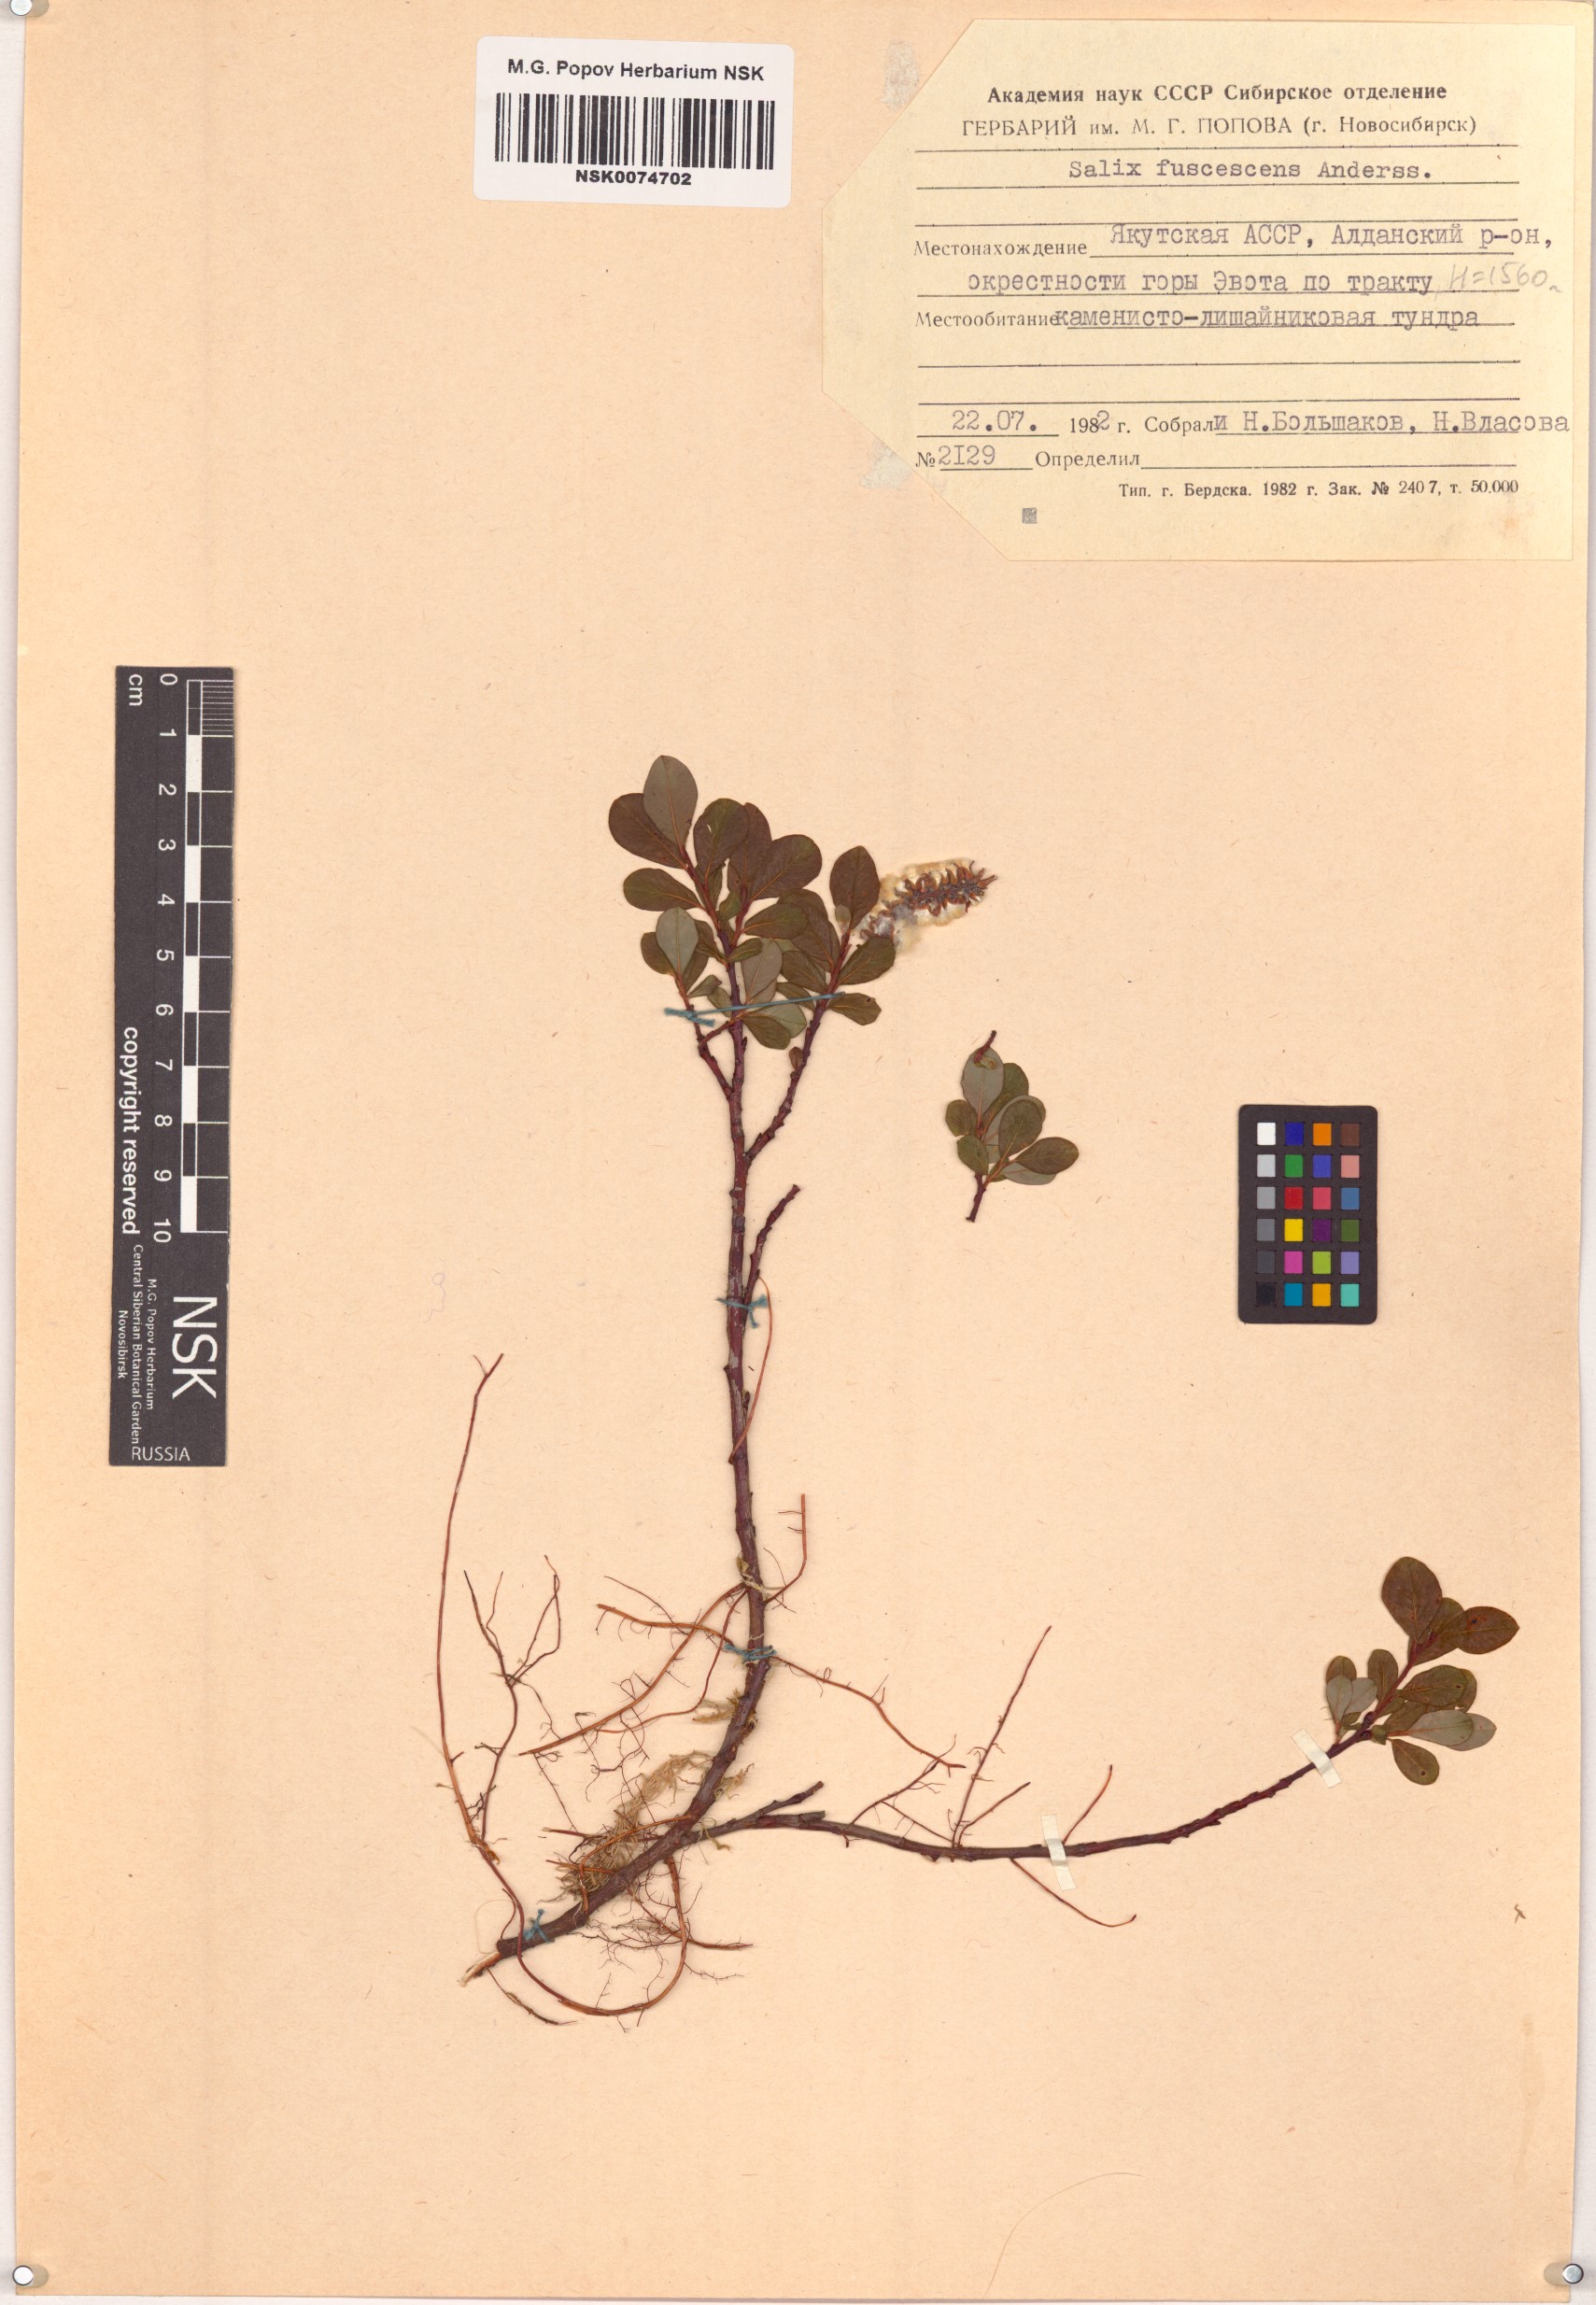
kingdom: Plantae
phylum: Tracheophyta
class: Magnoliopsida
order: Malpighiales
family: Salicaceae
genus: Salix
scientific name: Salix fuscescens
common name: Brownish willow
